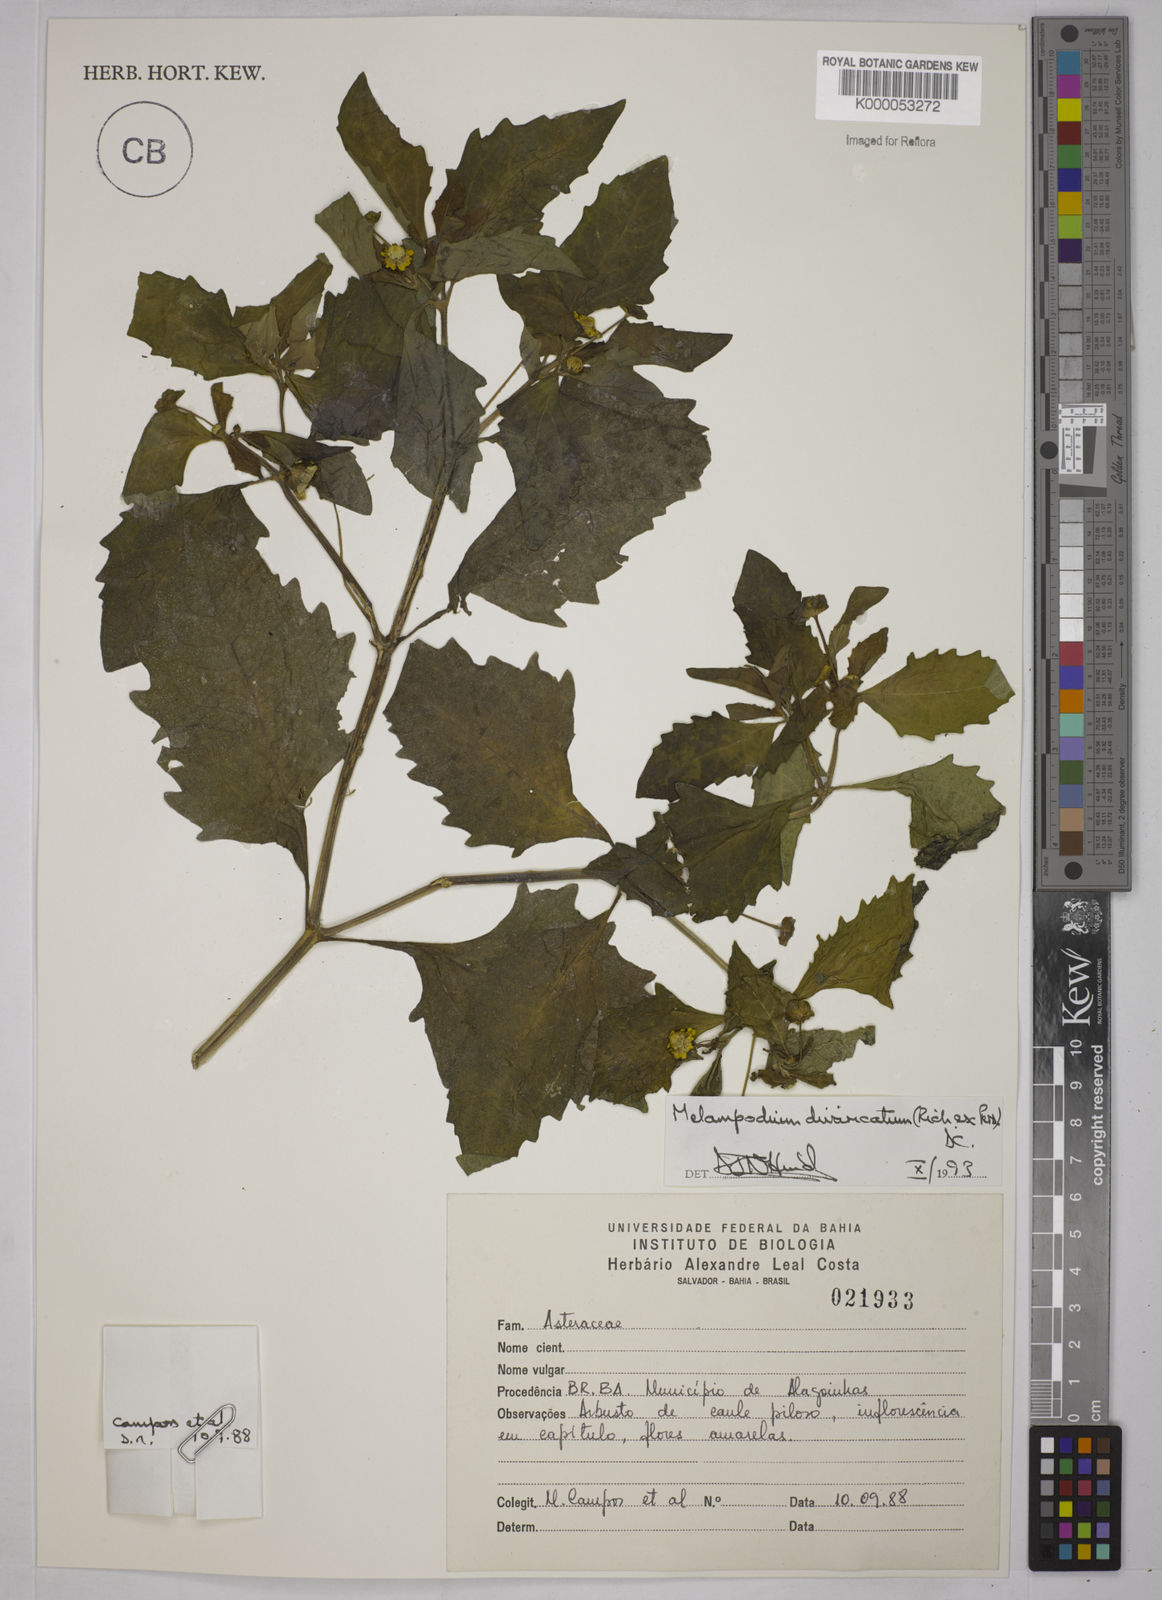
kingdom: Plantae
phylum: Tracheophyta
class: Magnoliopsida
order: Asterales
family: Asteraceae
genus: Melampodium
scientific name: Melampodium divaricatum
